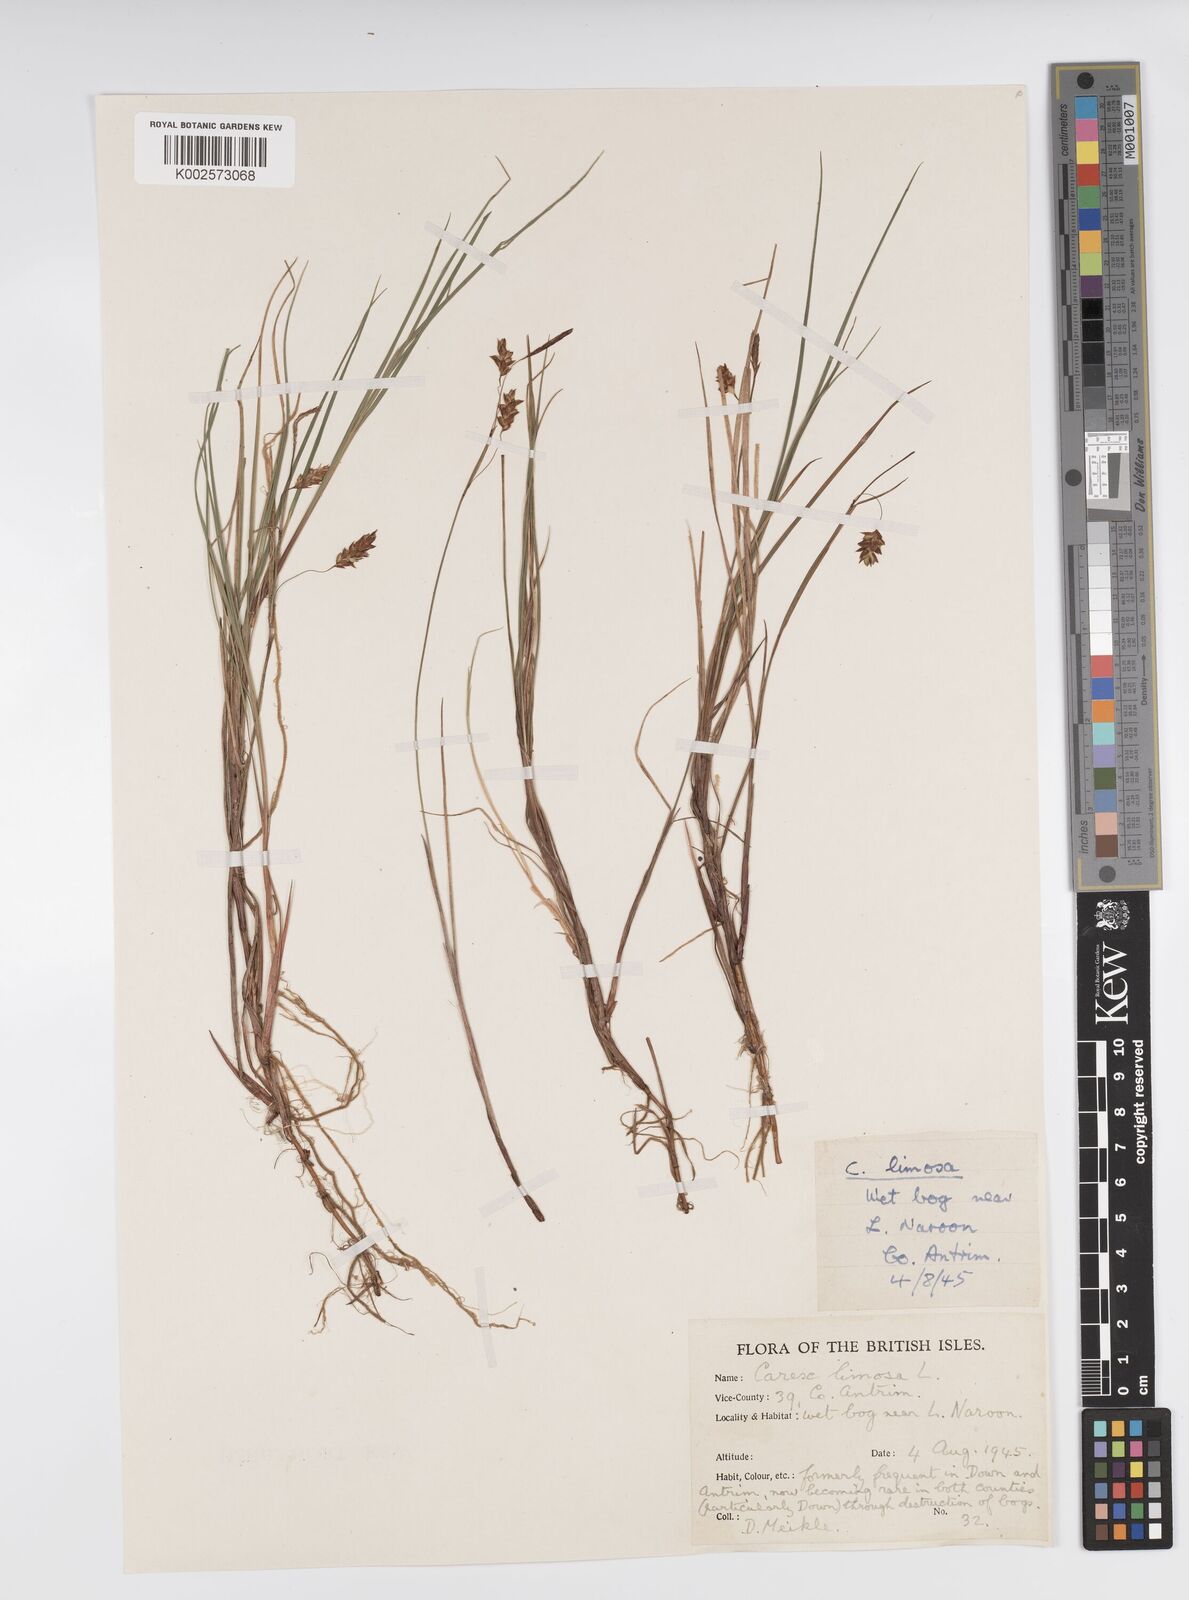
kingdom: Plantae
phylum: Tracheophyta
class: Liliopsida
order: Poales
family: Cyperaceae
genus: Carex
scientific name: Carex limosa
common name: Bog sedge
